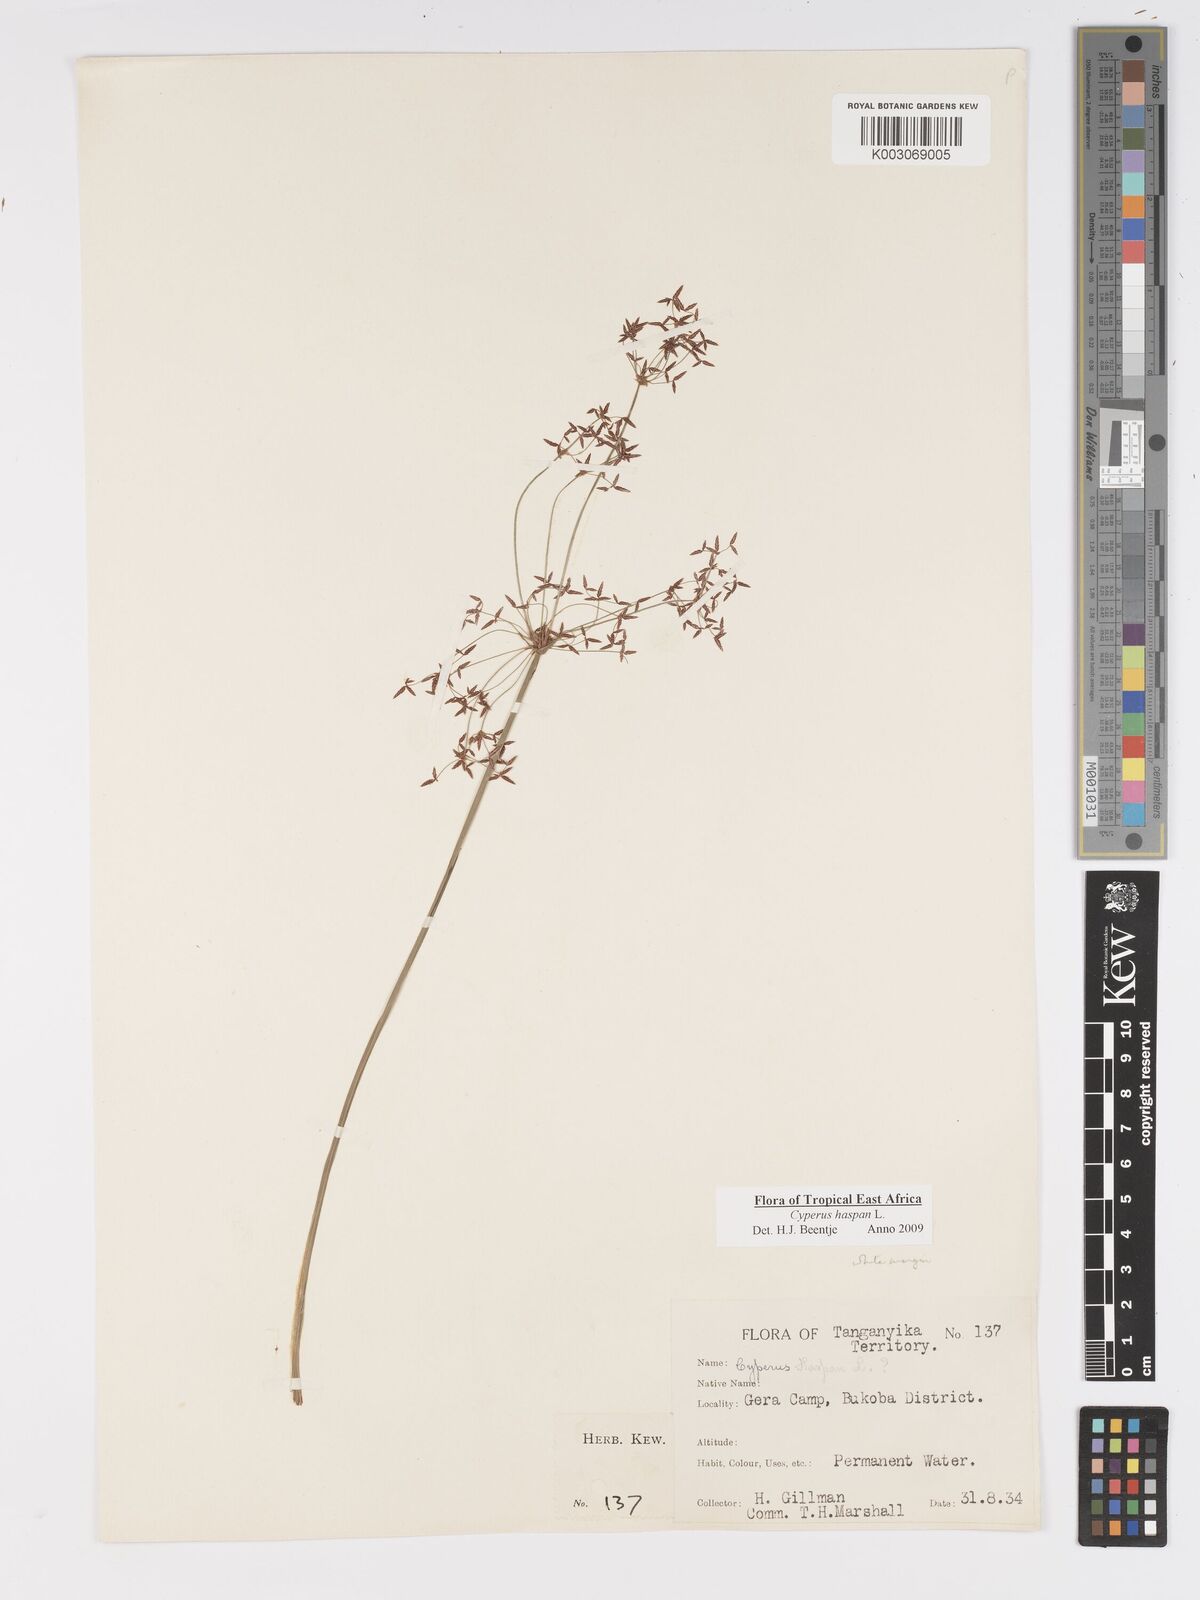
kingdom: Plantae
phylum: Tracheophyta
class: Liliopsida
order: Poales
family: Cyperaceae
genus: Cyperus
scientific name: Cyperus platycaulis
